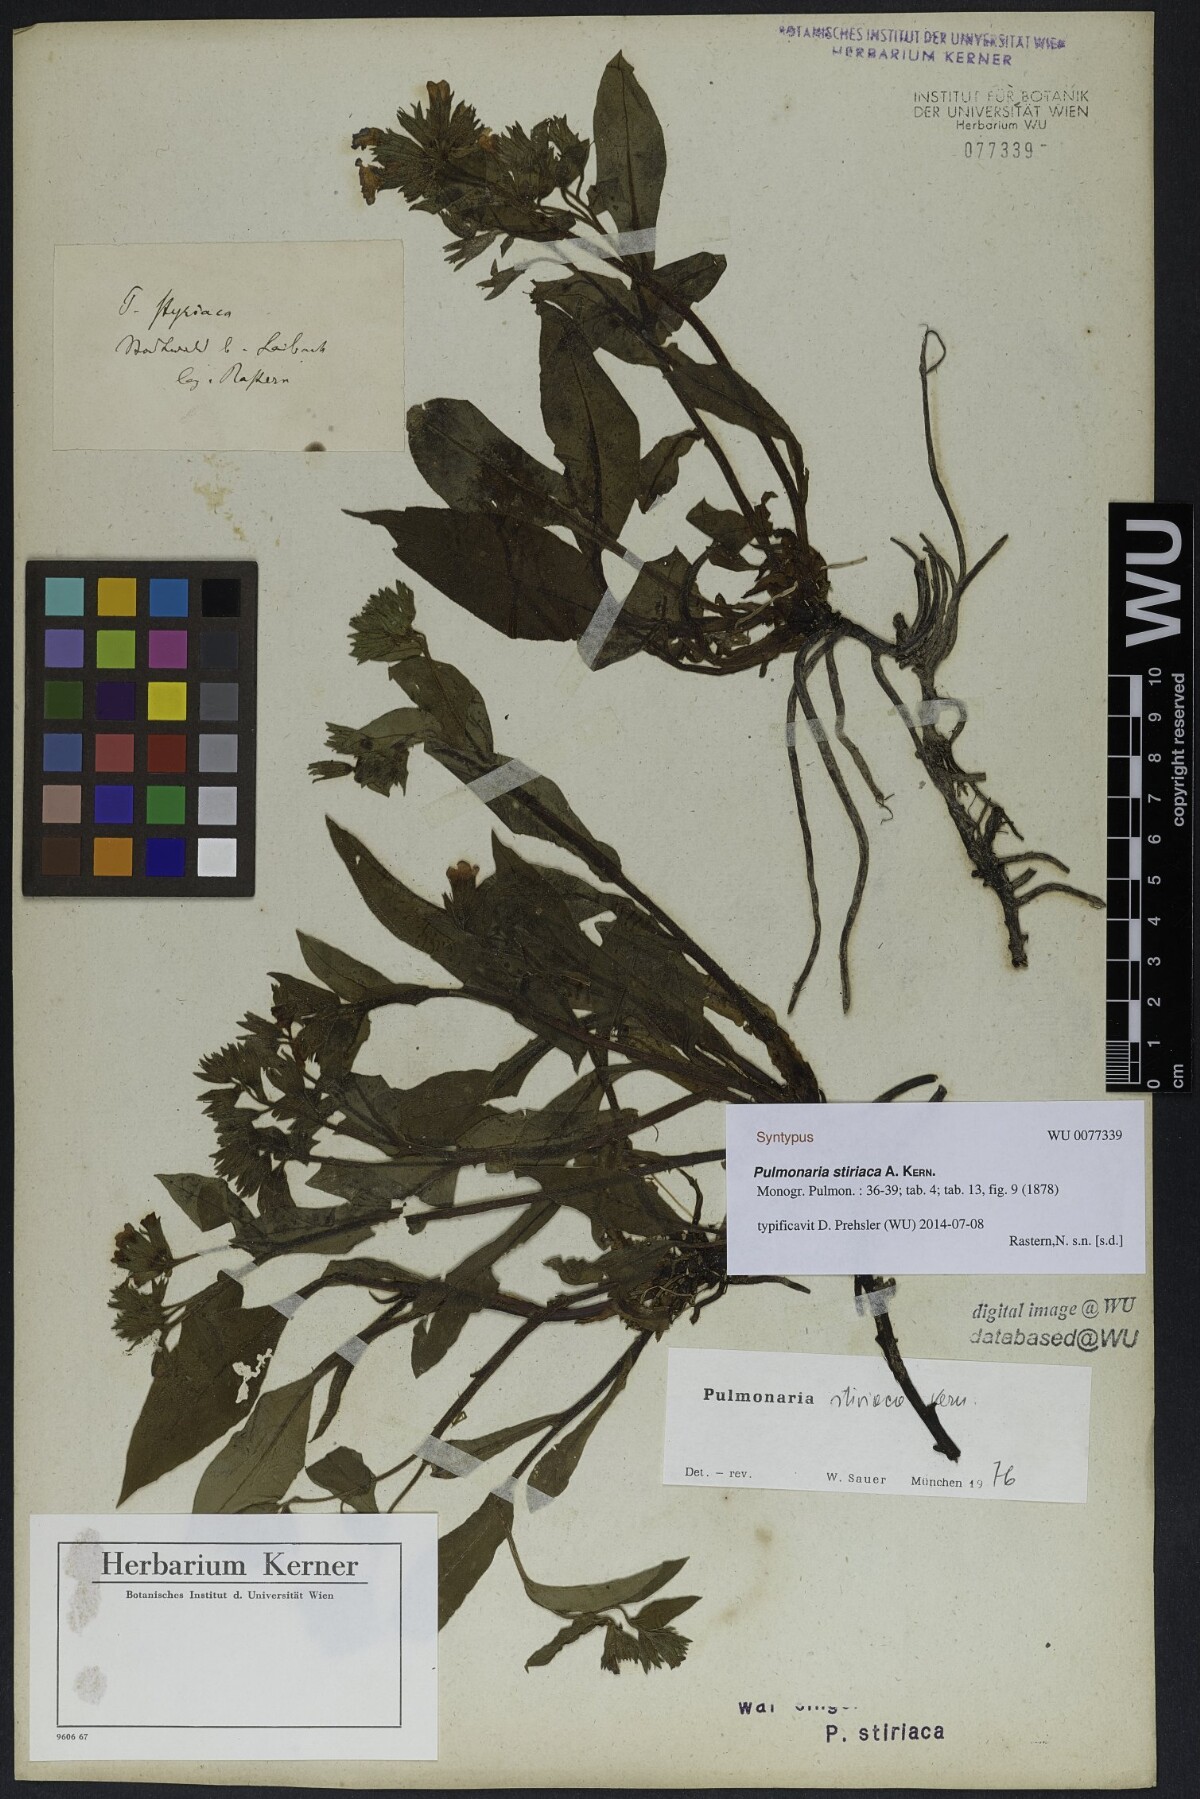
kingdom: Plantae
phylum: Tracheophyta
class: Magnoliopsida
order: Boraginales
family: Boraginaceae
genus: Pulmonaria
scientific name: Pulmonaria stiriaca
